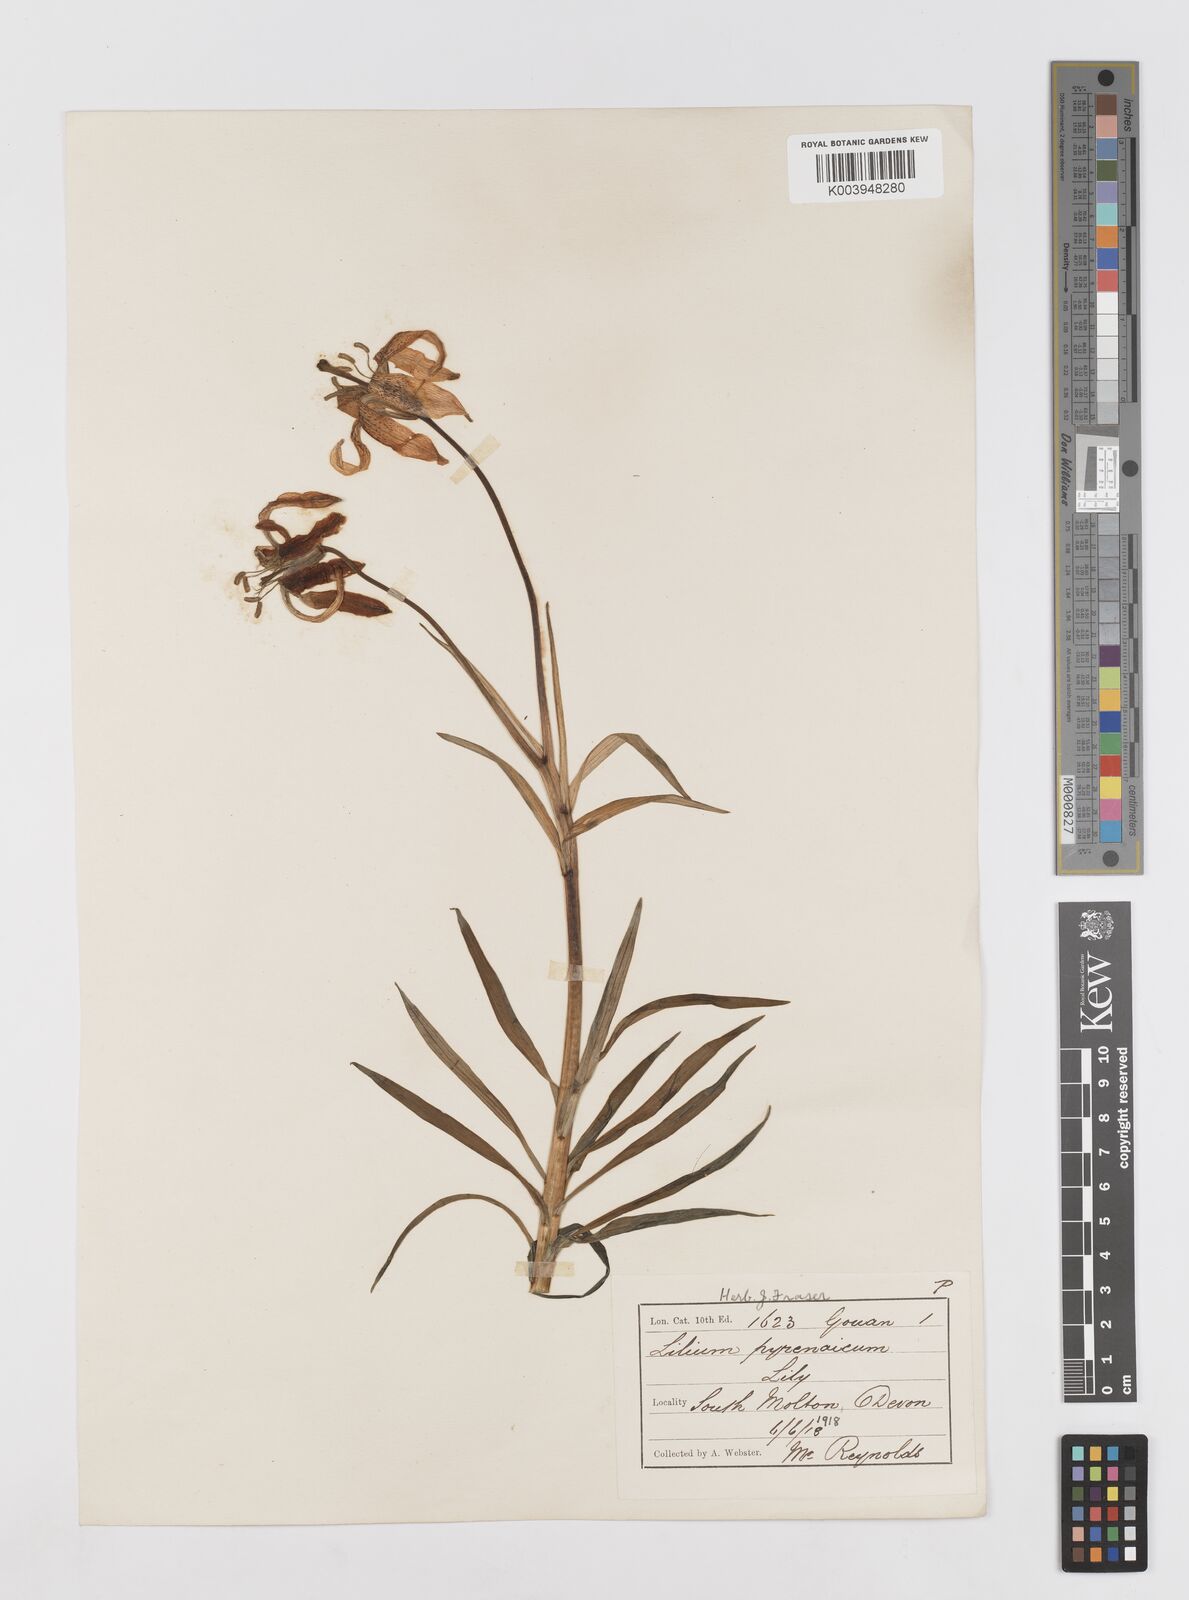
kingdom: Plantae
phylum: Tracheophyta
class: Liliopsida
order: Liliales
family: Liliaceae
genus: Lilium
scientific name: Lilium pyrenaicum
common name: Pyrenean lily
